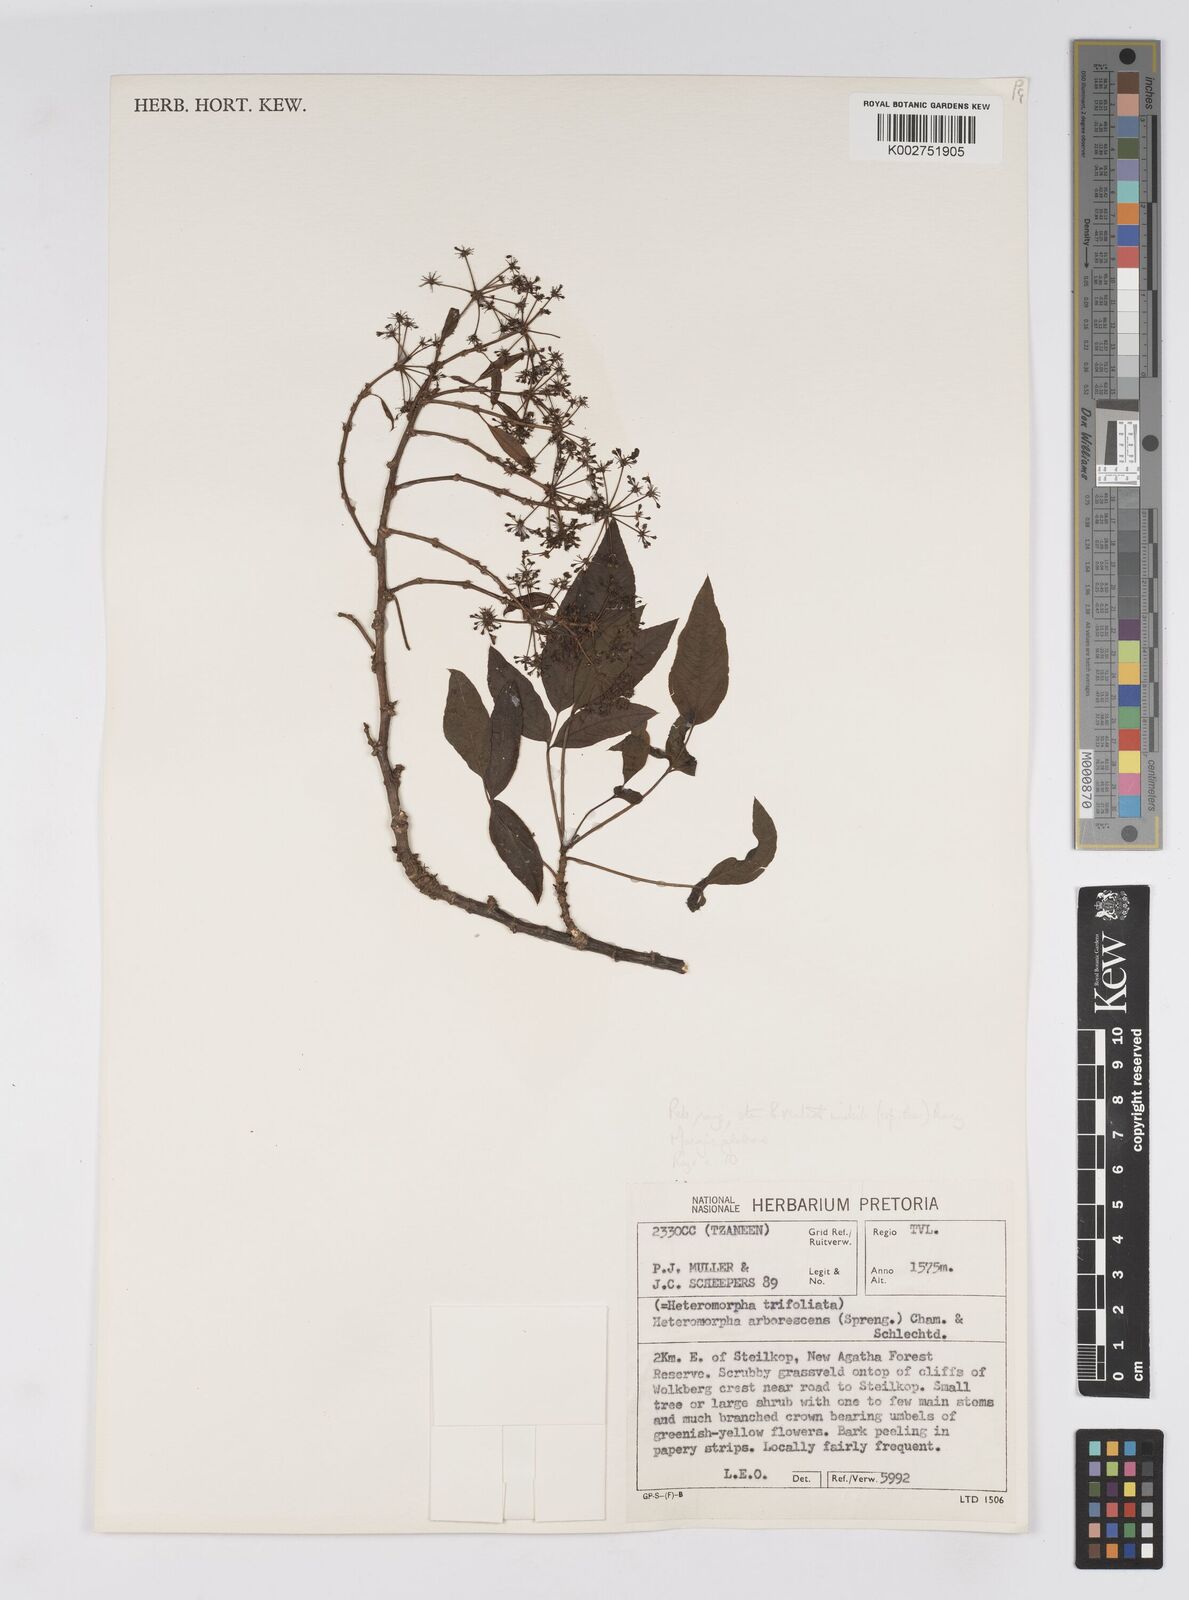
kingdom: Plantae
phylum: Tracheophyta
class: Magnoliopsida
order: Apiales
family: Apiaceae
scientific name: Apiaceae
